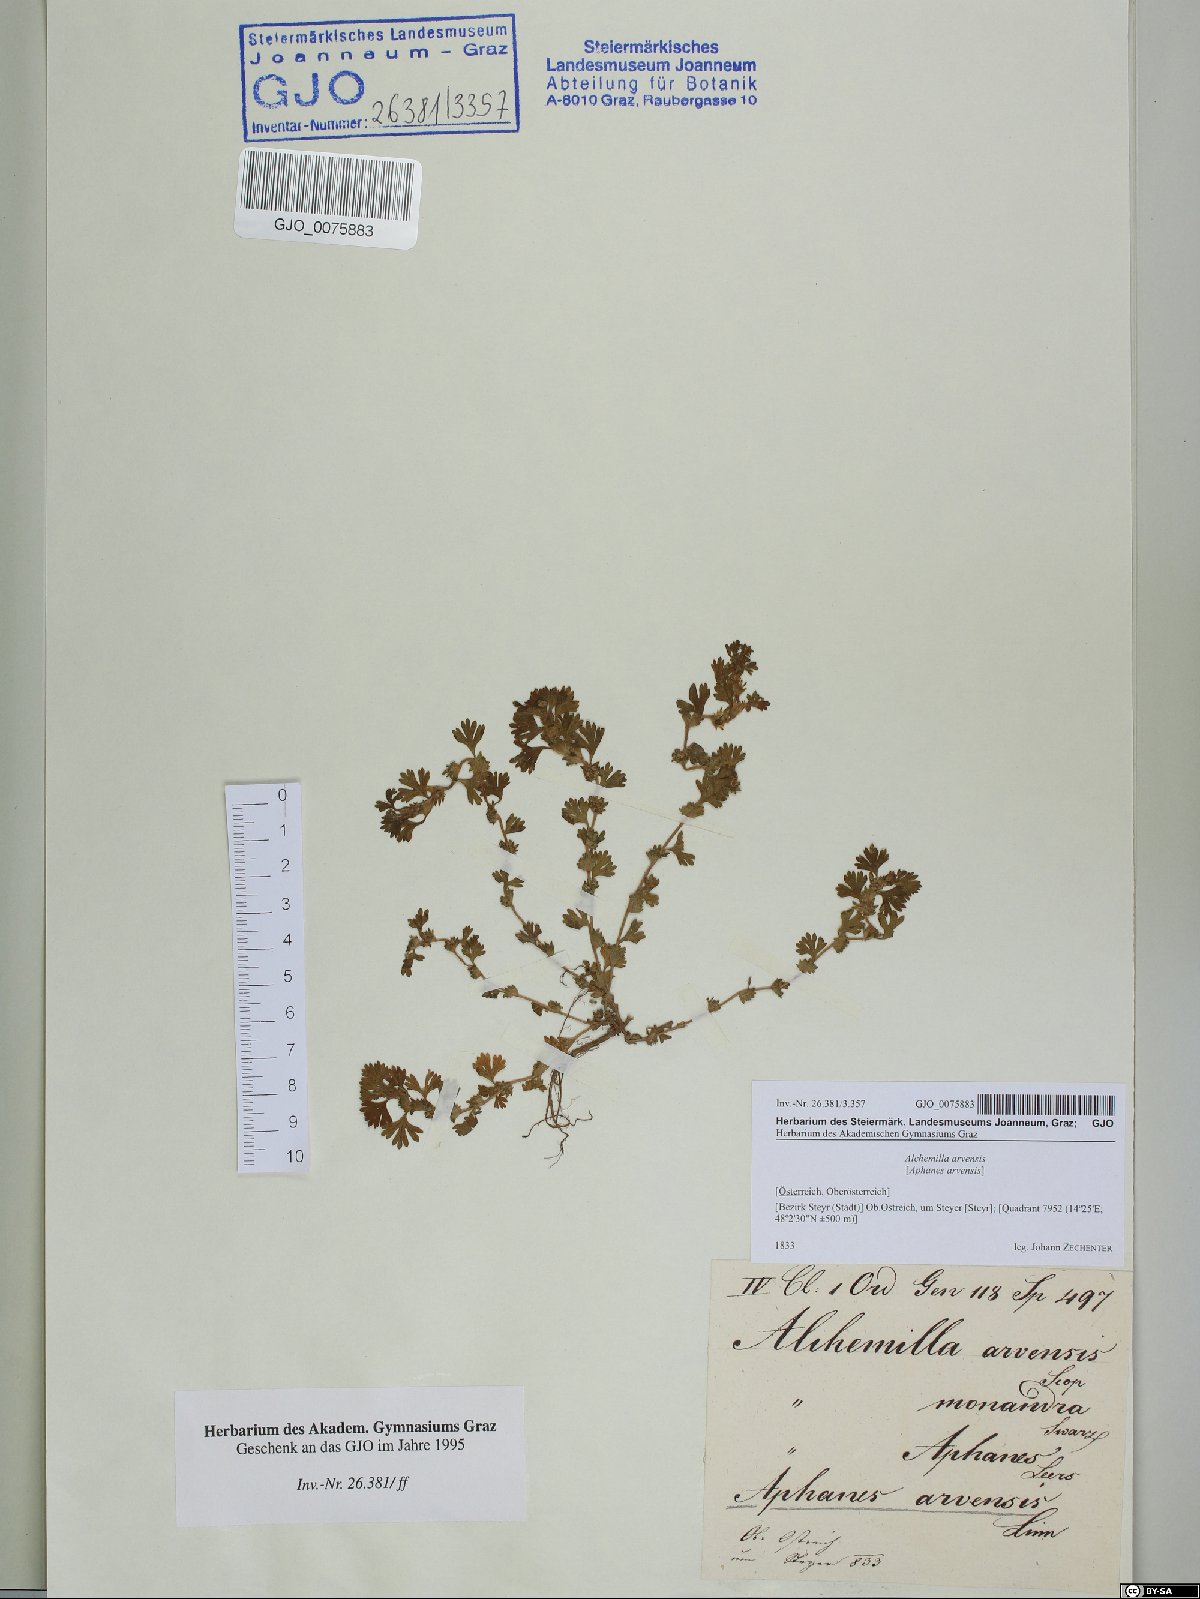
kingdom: Plantae
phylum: Tracheophyta
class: Magnoliopsida
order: Rosales
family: Rosaceae
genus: Aphanes
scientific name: Aphanes arvensis
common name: Parsley-piert
